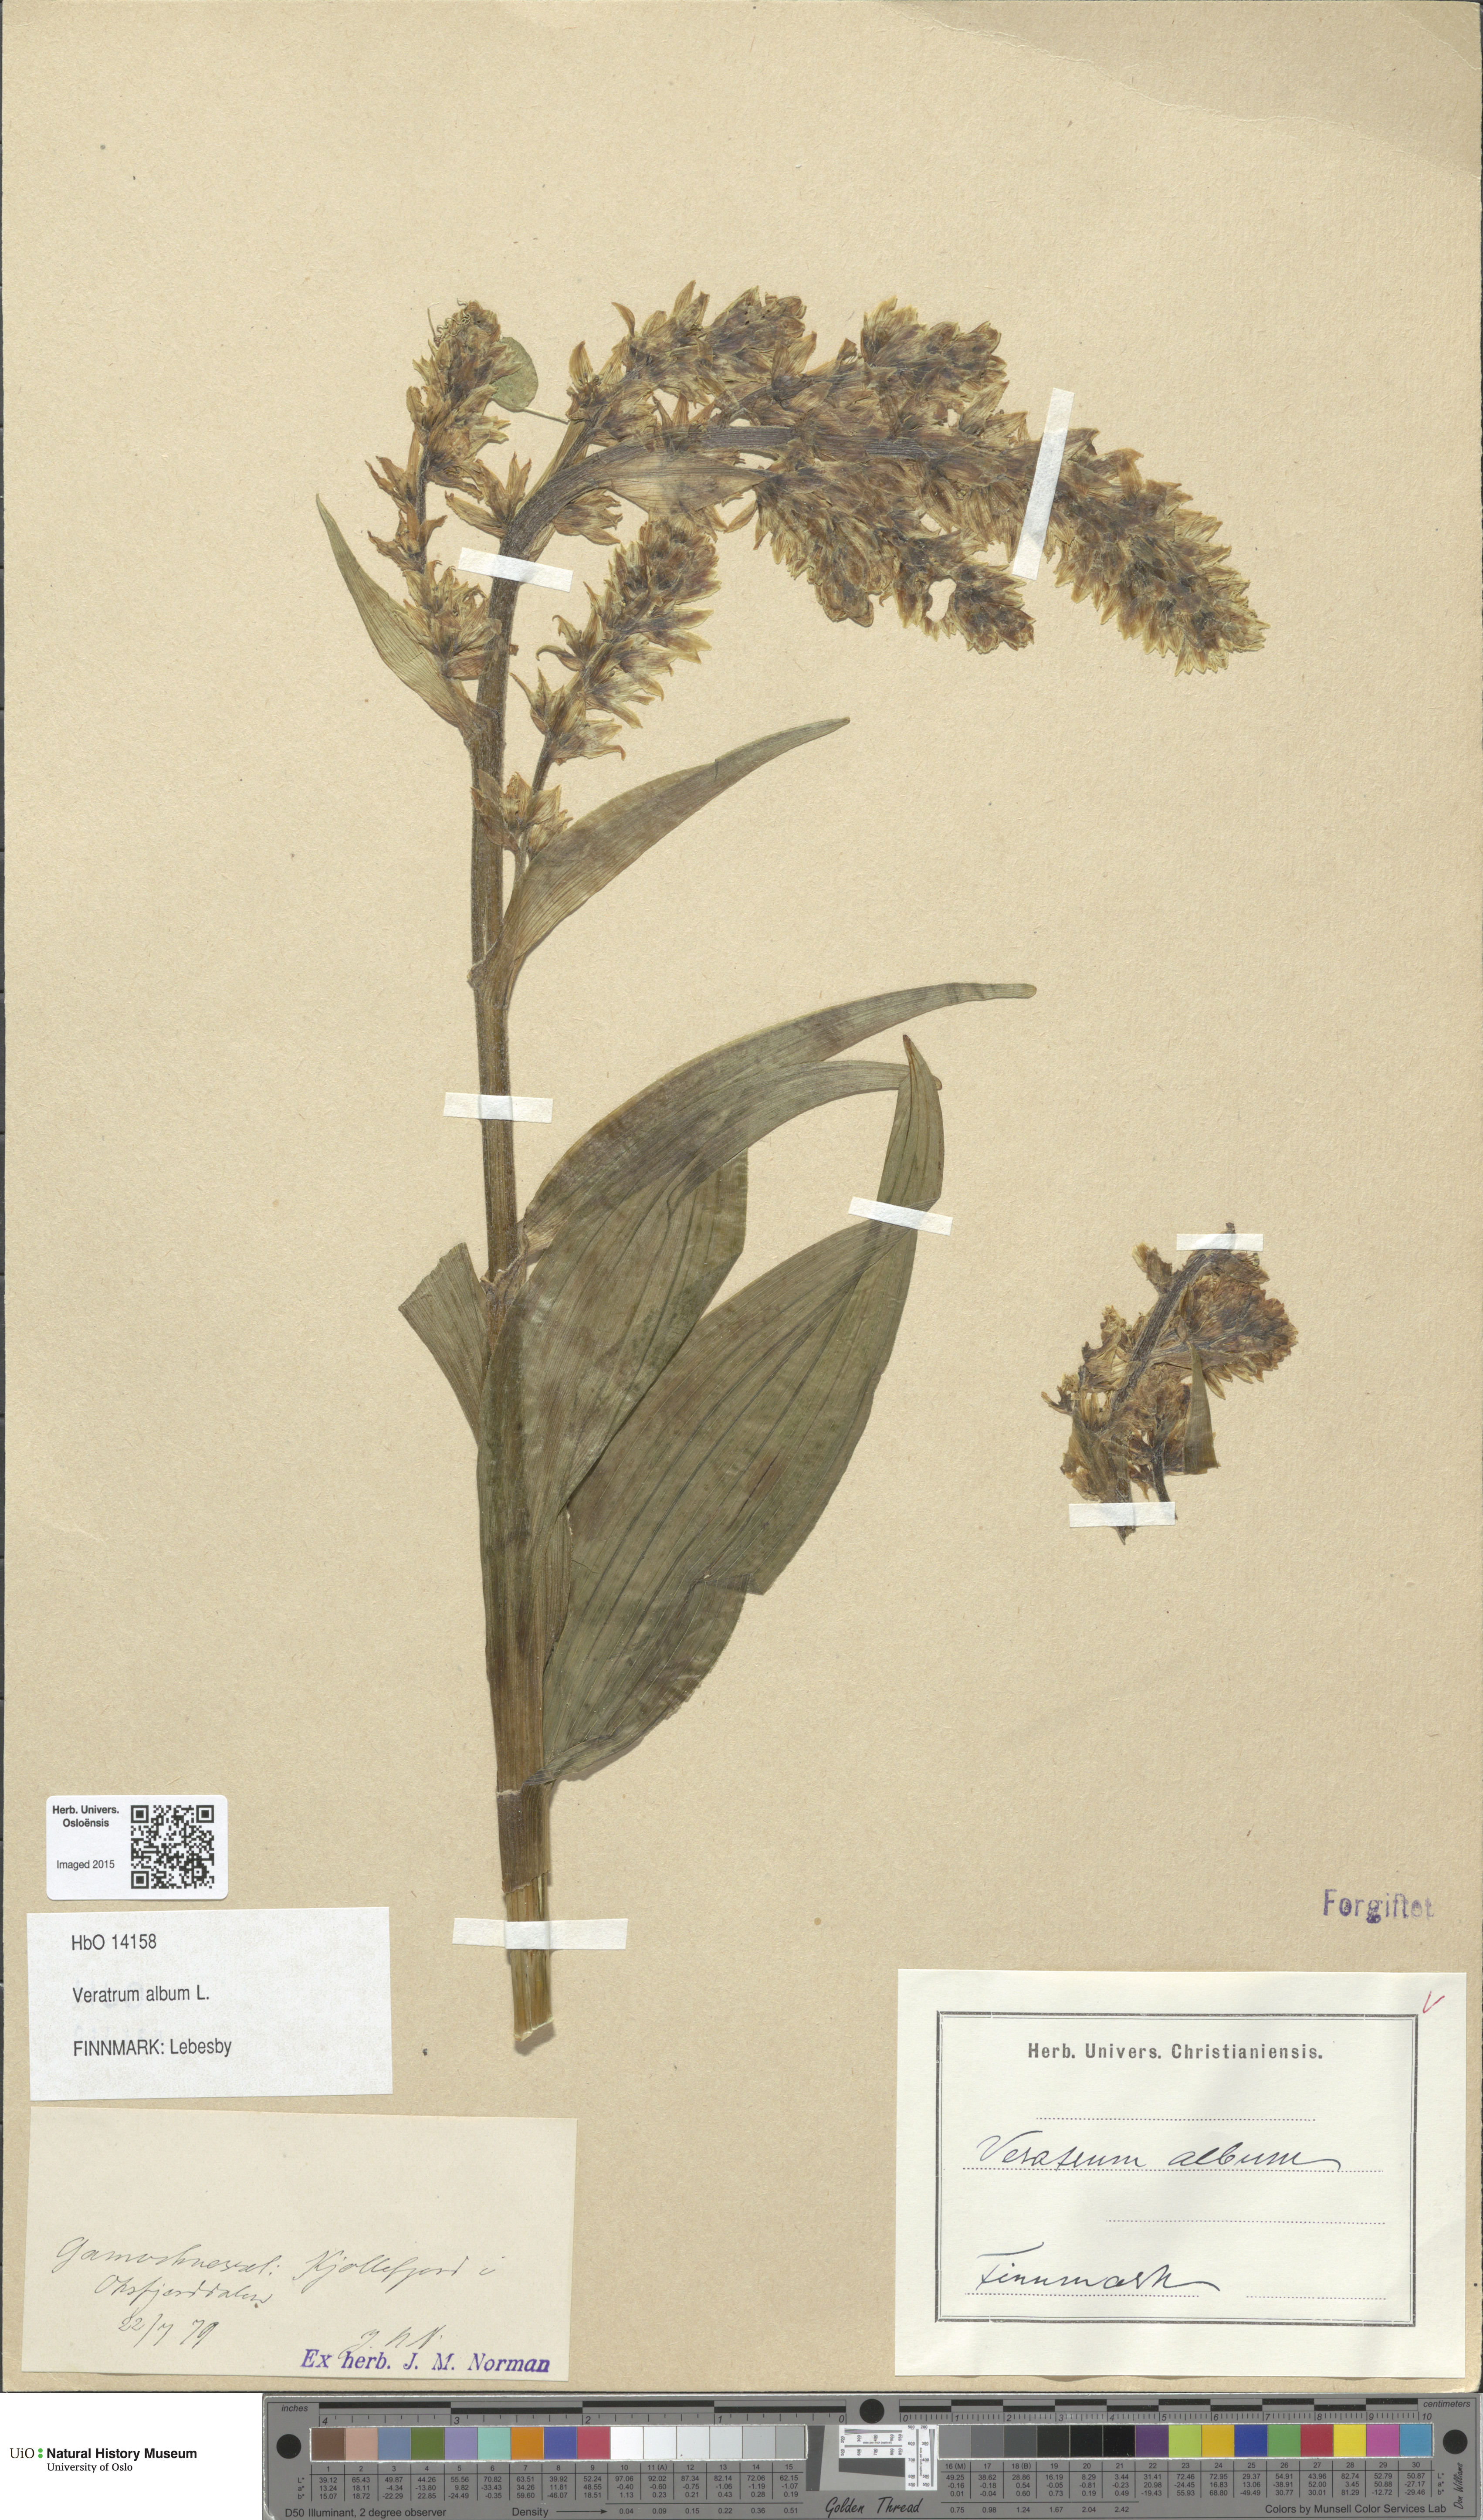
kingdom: Plantae
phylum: Tracheophyta
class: Liliopsida
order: Liliales
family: Melanthiaceae
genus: Veratrum
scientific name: Veratrum album
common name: White veratrum
